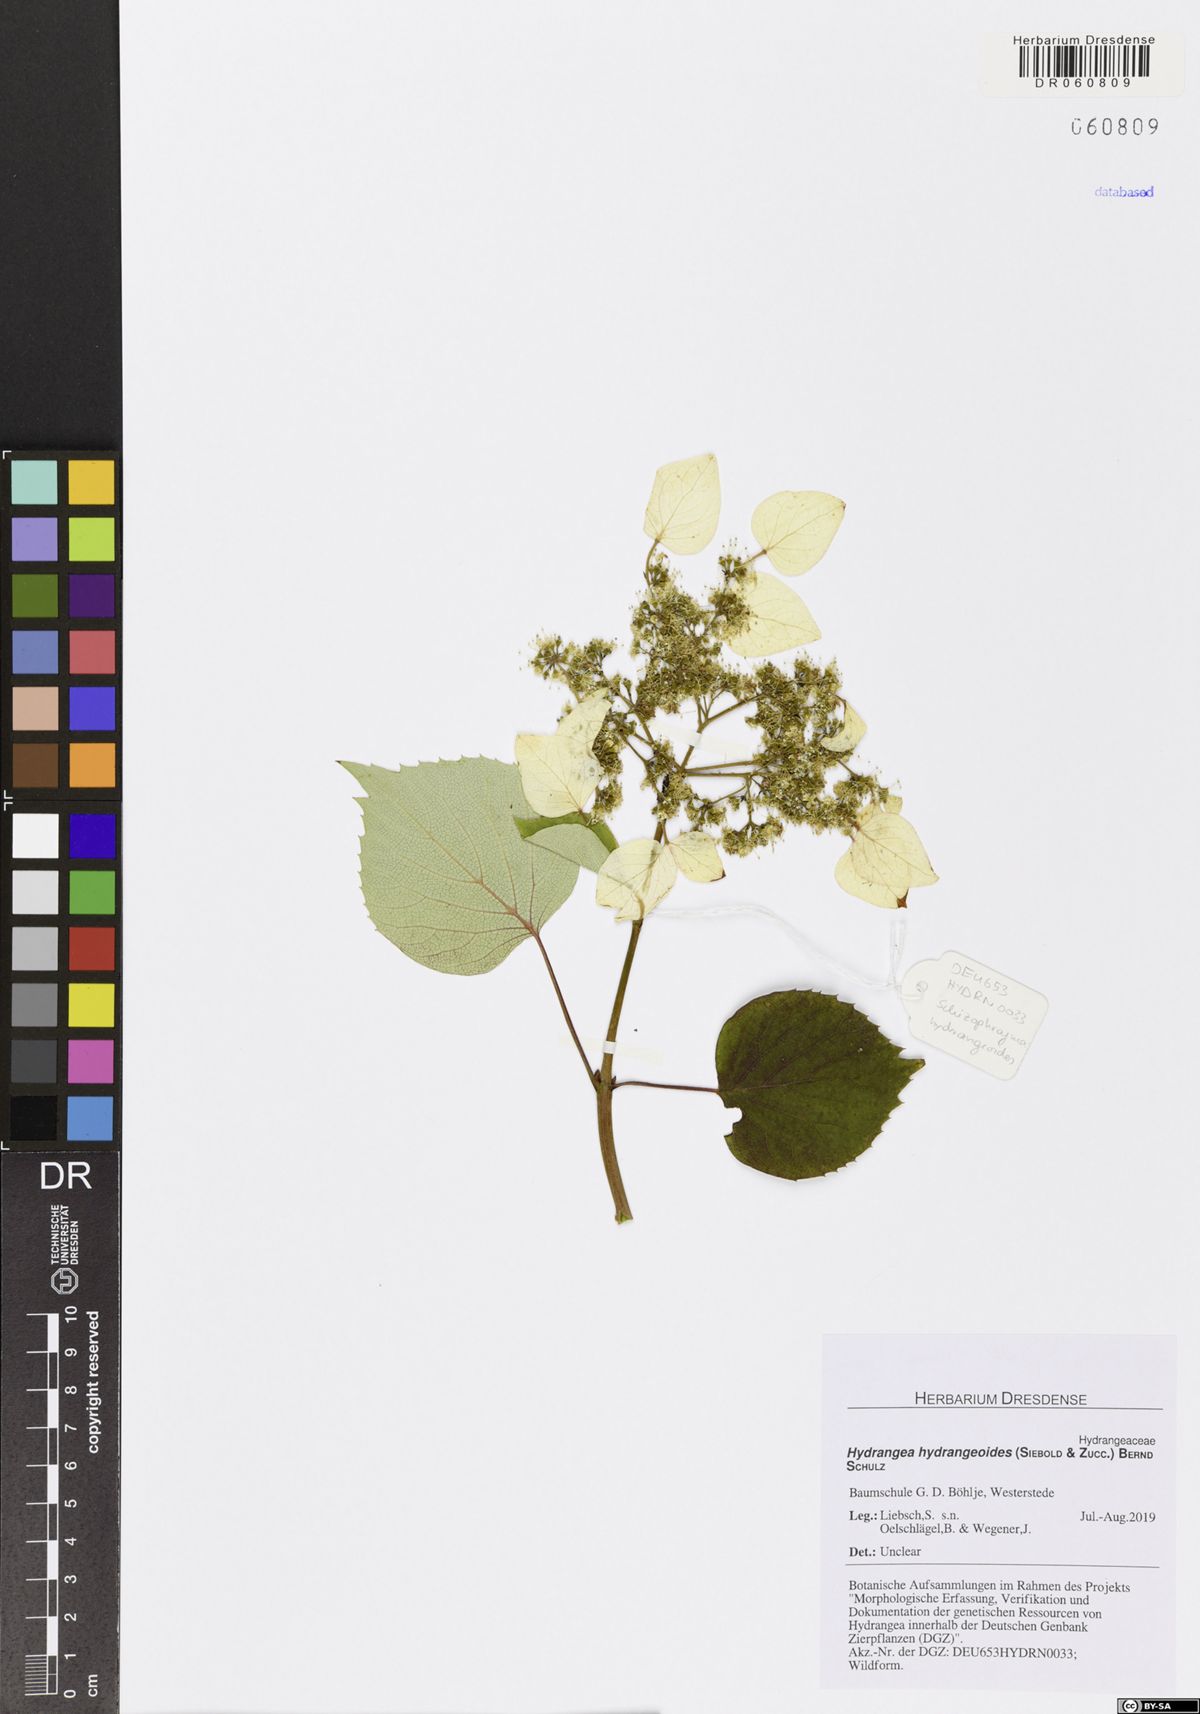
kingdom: Plantae
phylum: Tracheophyta
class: Magnoliopsida
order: Cornales
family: Hydrangeaceae
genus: Hydrangea
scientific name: Hydrangea hydrangeoides
